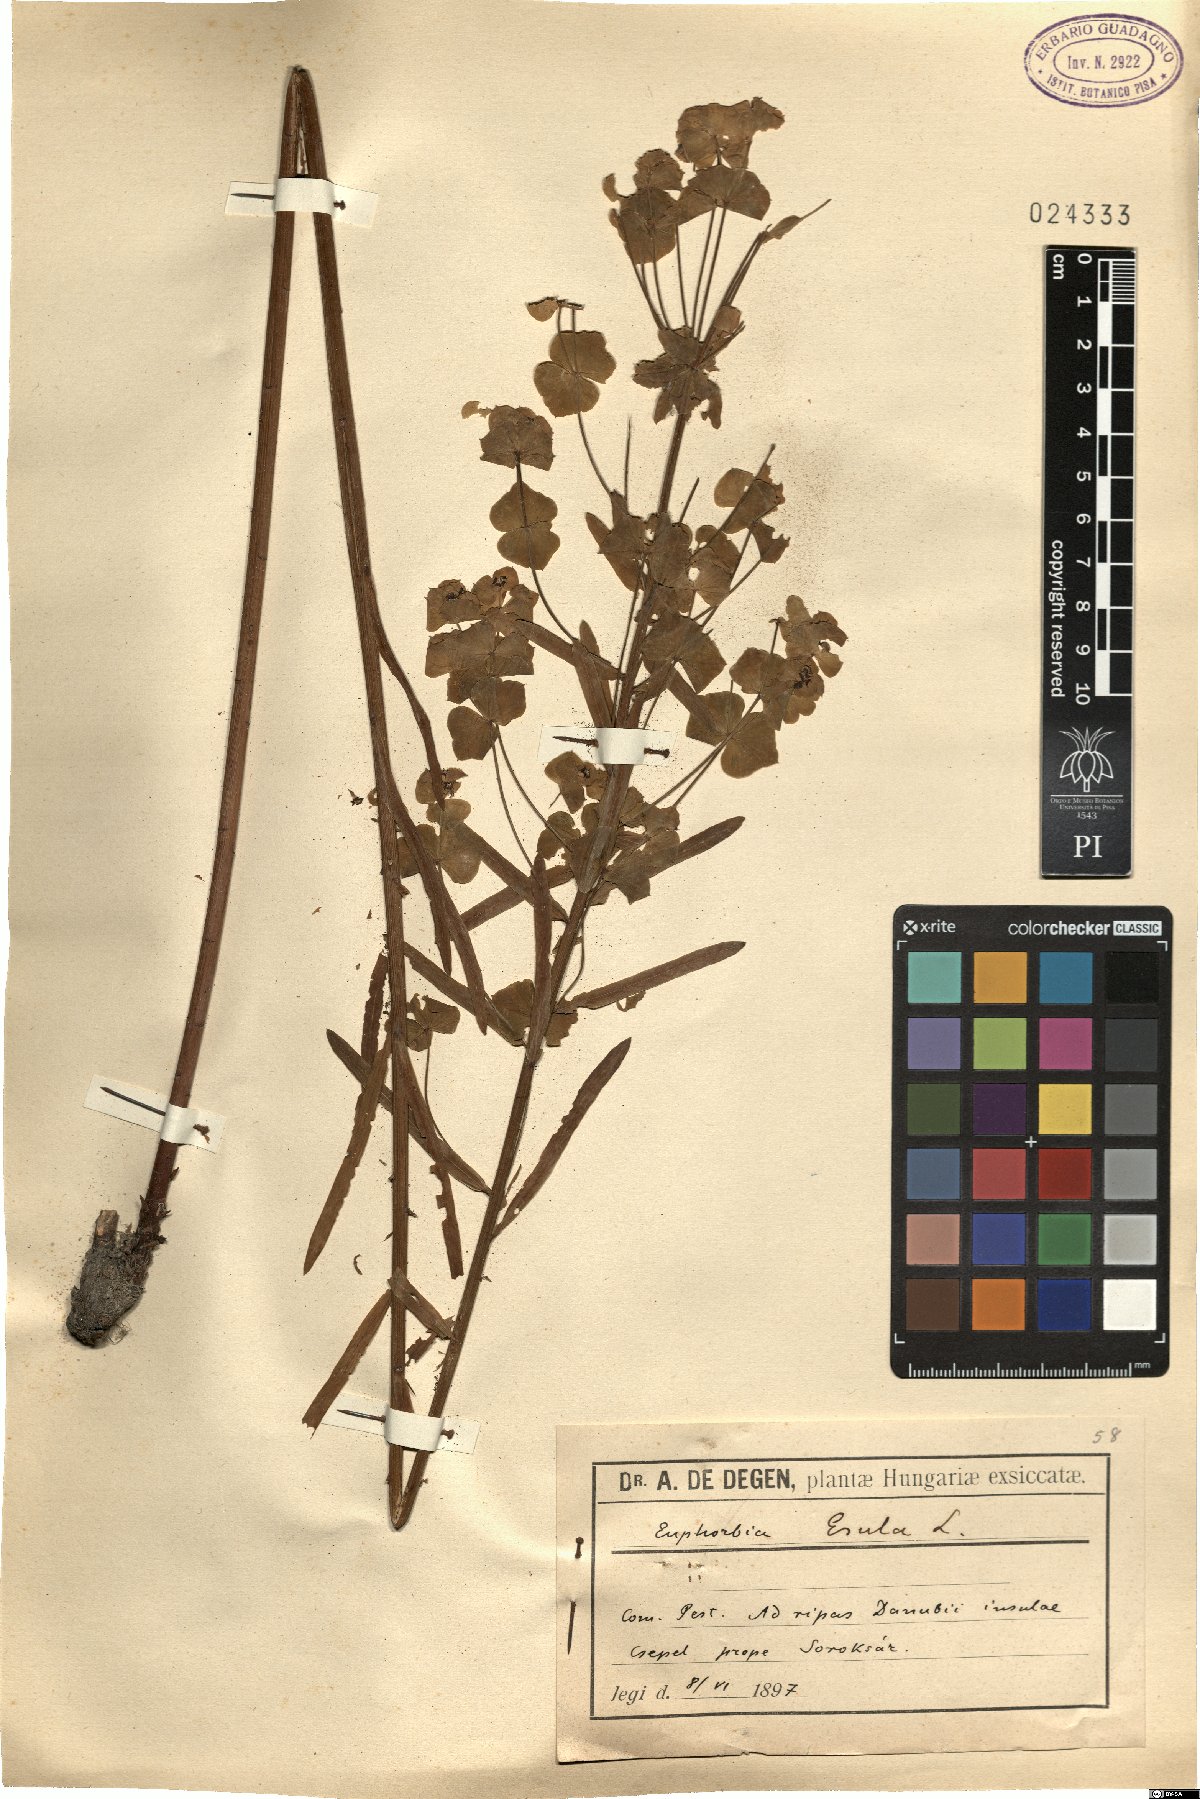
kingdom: Plantae
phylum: Tracheophyta
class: Magnoliopsida
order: Malpighiales
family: Euphorbiaceae
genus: Euphorbia
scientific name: Euphorbia esula
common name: Leafy spurge
